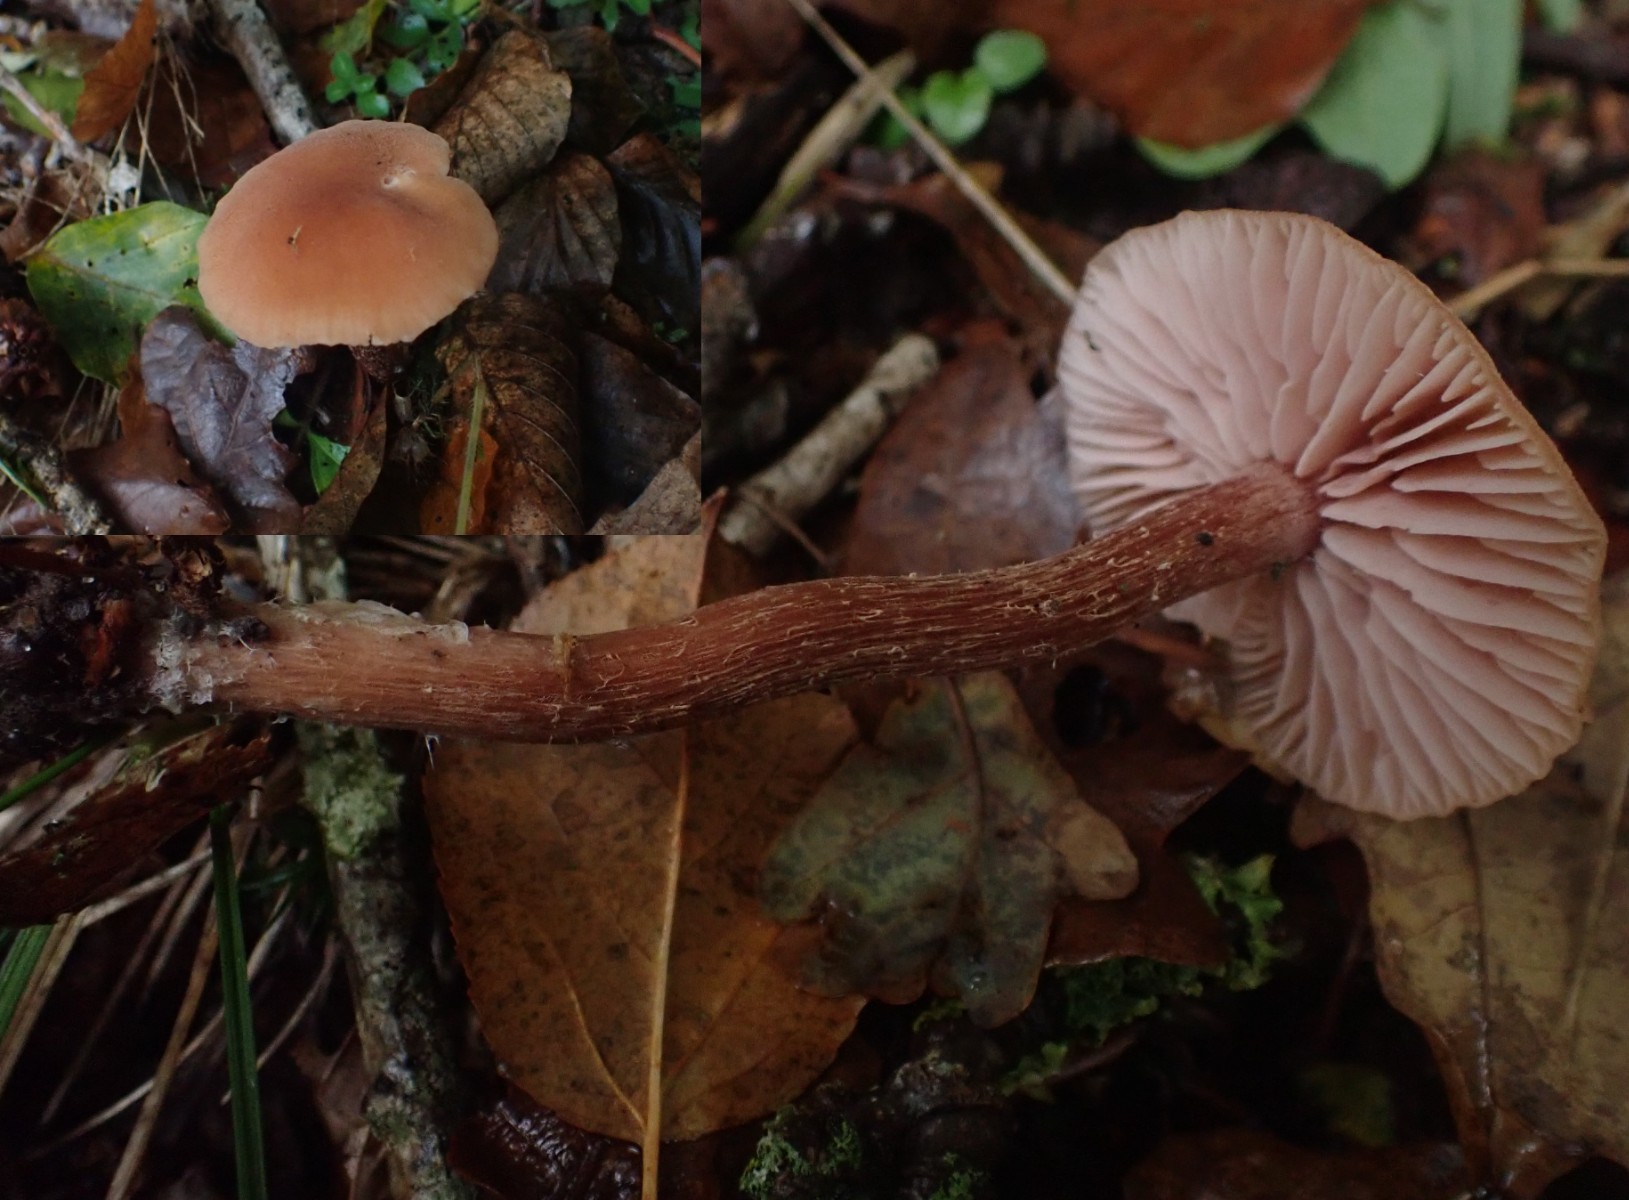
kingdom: Fungi
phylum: Basidiomycota
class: Agaricomycetes
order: Agaricales
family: Hydnangiaceae
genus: Laccaria
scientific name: Laccaria proxima
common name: stor ametysthat
